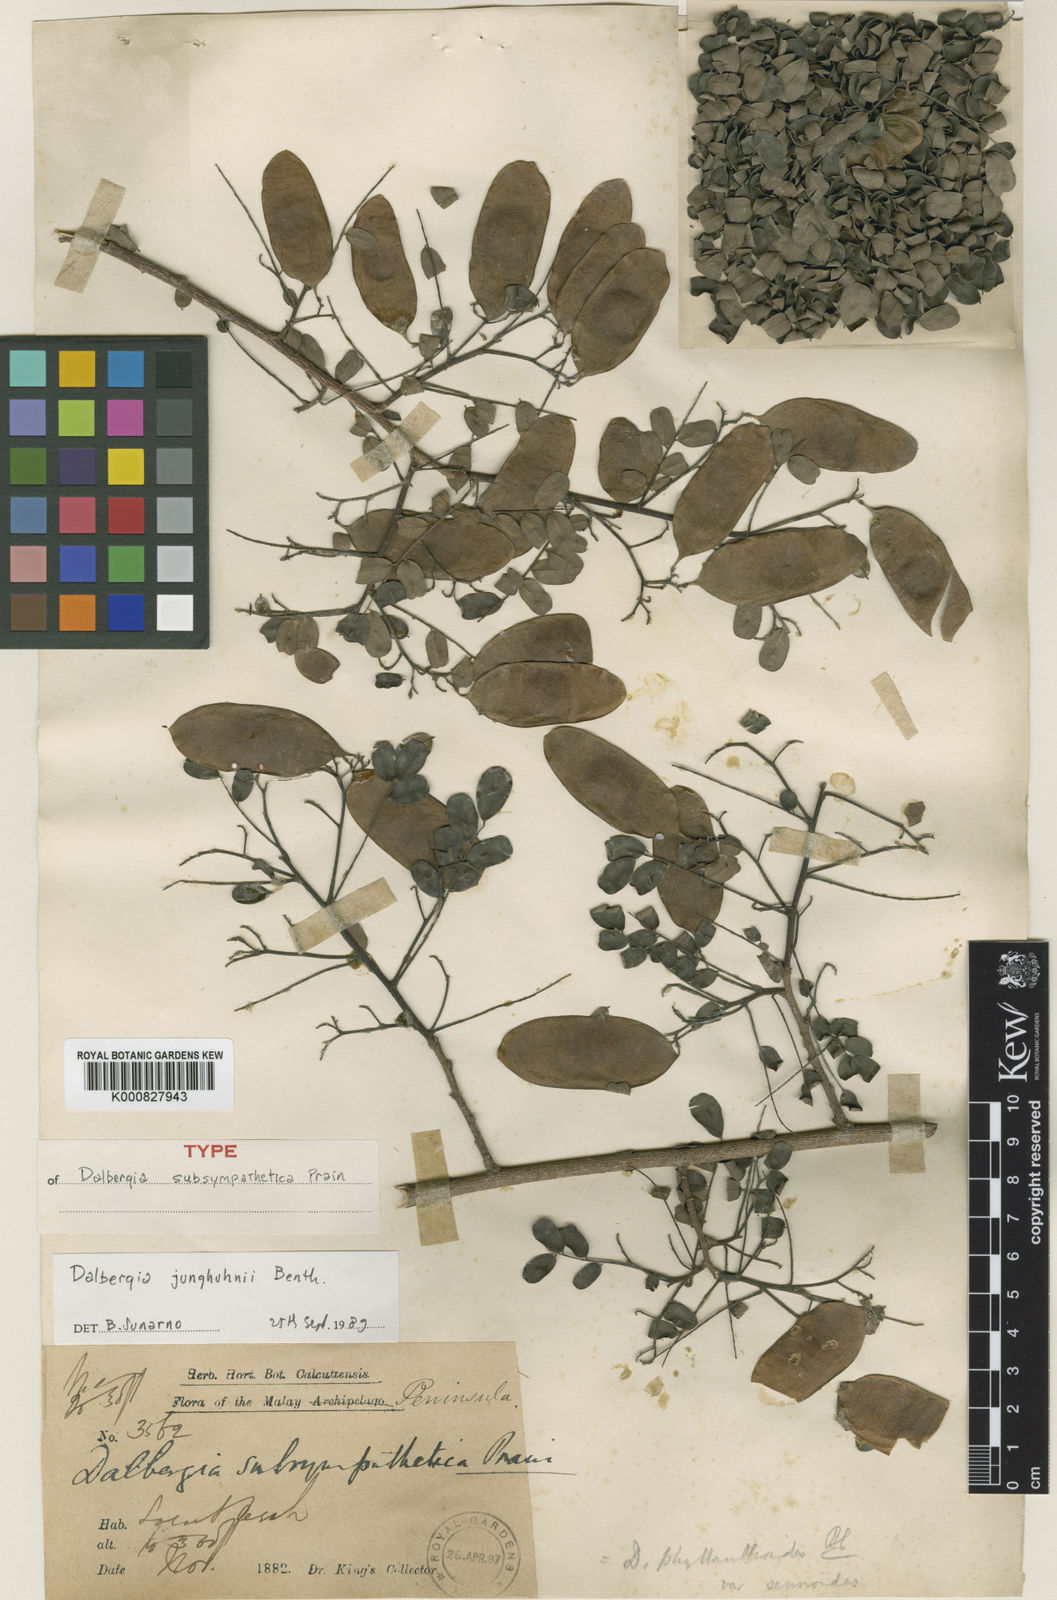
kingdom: Plantae
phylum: Tracheophyta
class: Magnoliopsida
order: Fabales
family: Fabaceae
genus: Dalbergia
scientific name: Dalbergia
